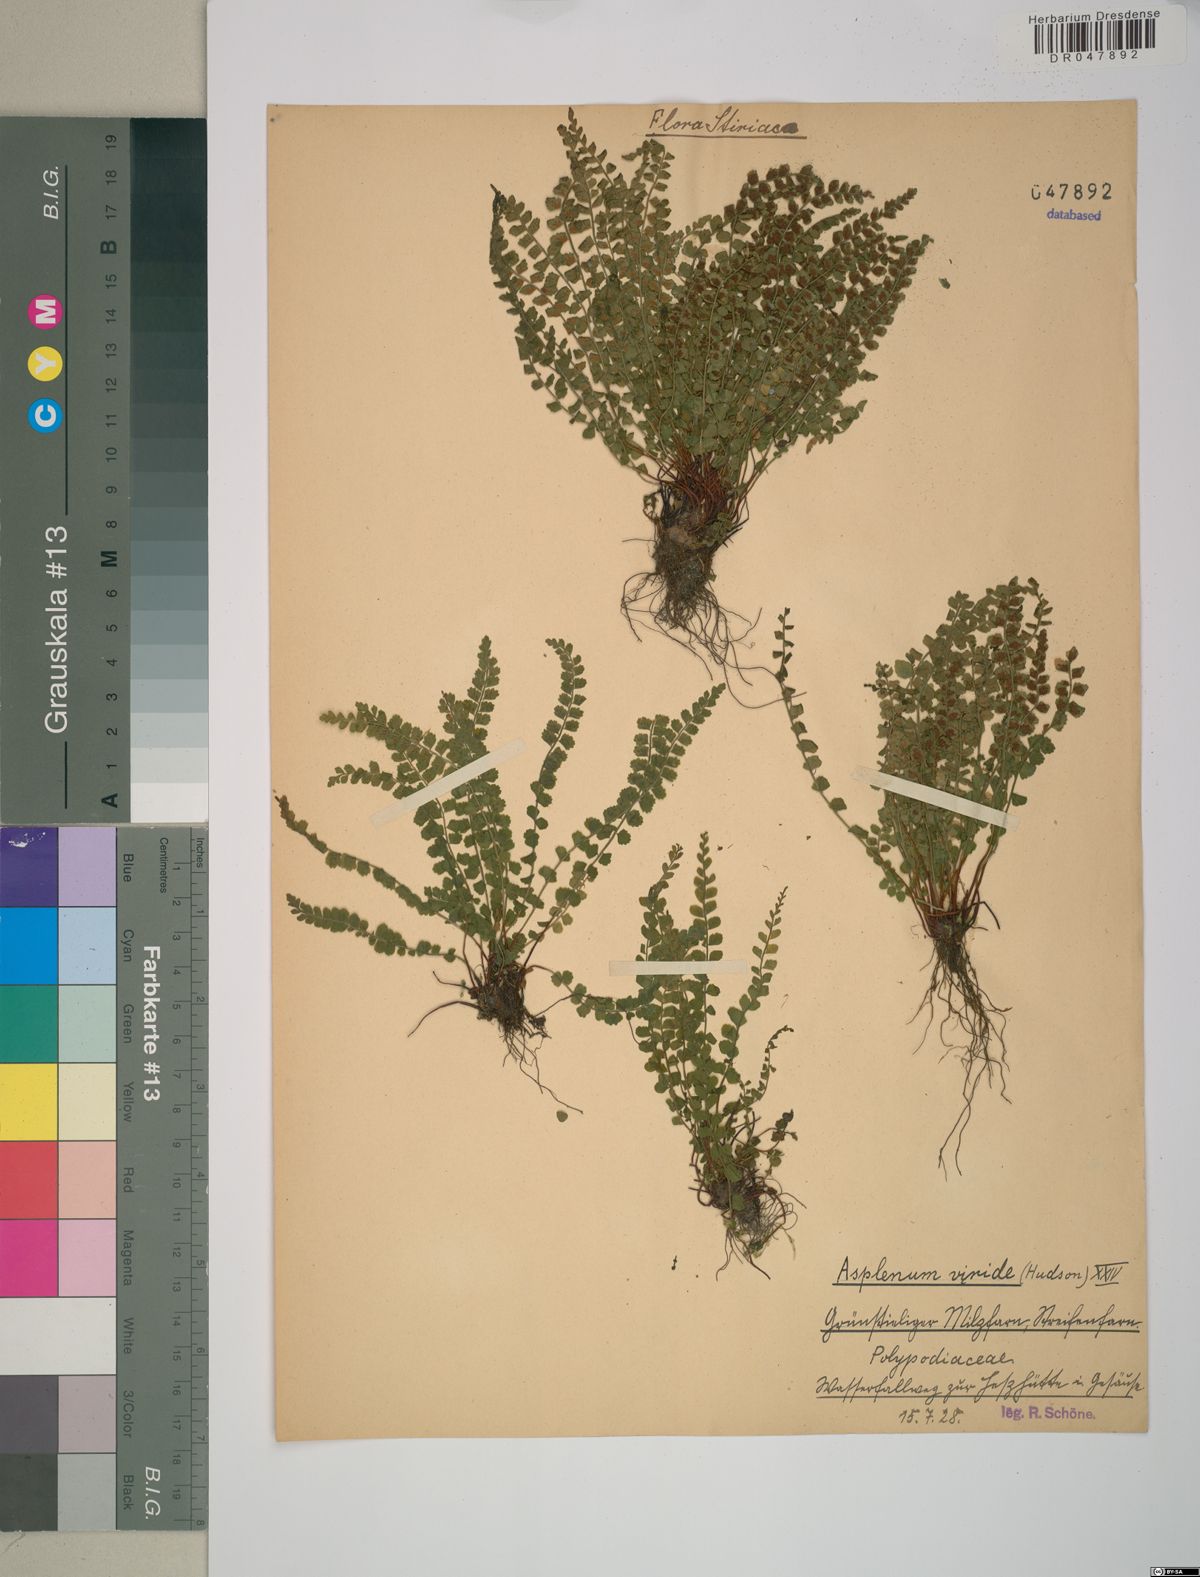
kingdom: Plantae
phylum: Tracheophyta
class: Polypodiopsida
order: Polypodiales
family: Aspleniaceae
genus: Asplenium
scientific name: Asplenium viride
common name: Green spleenwort
